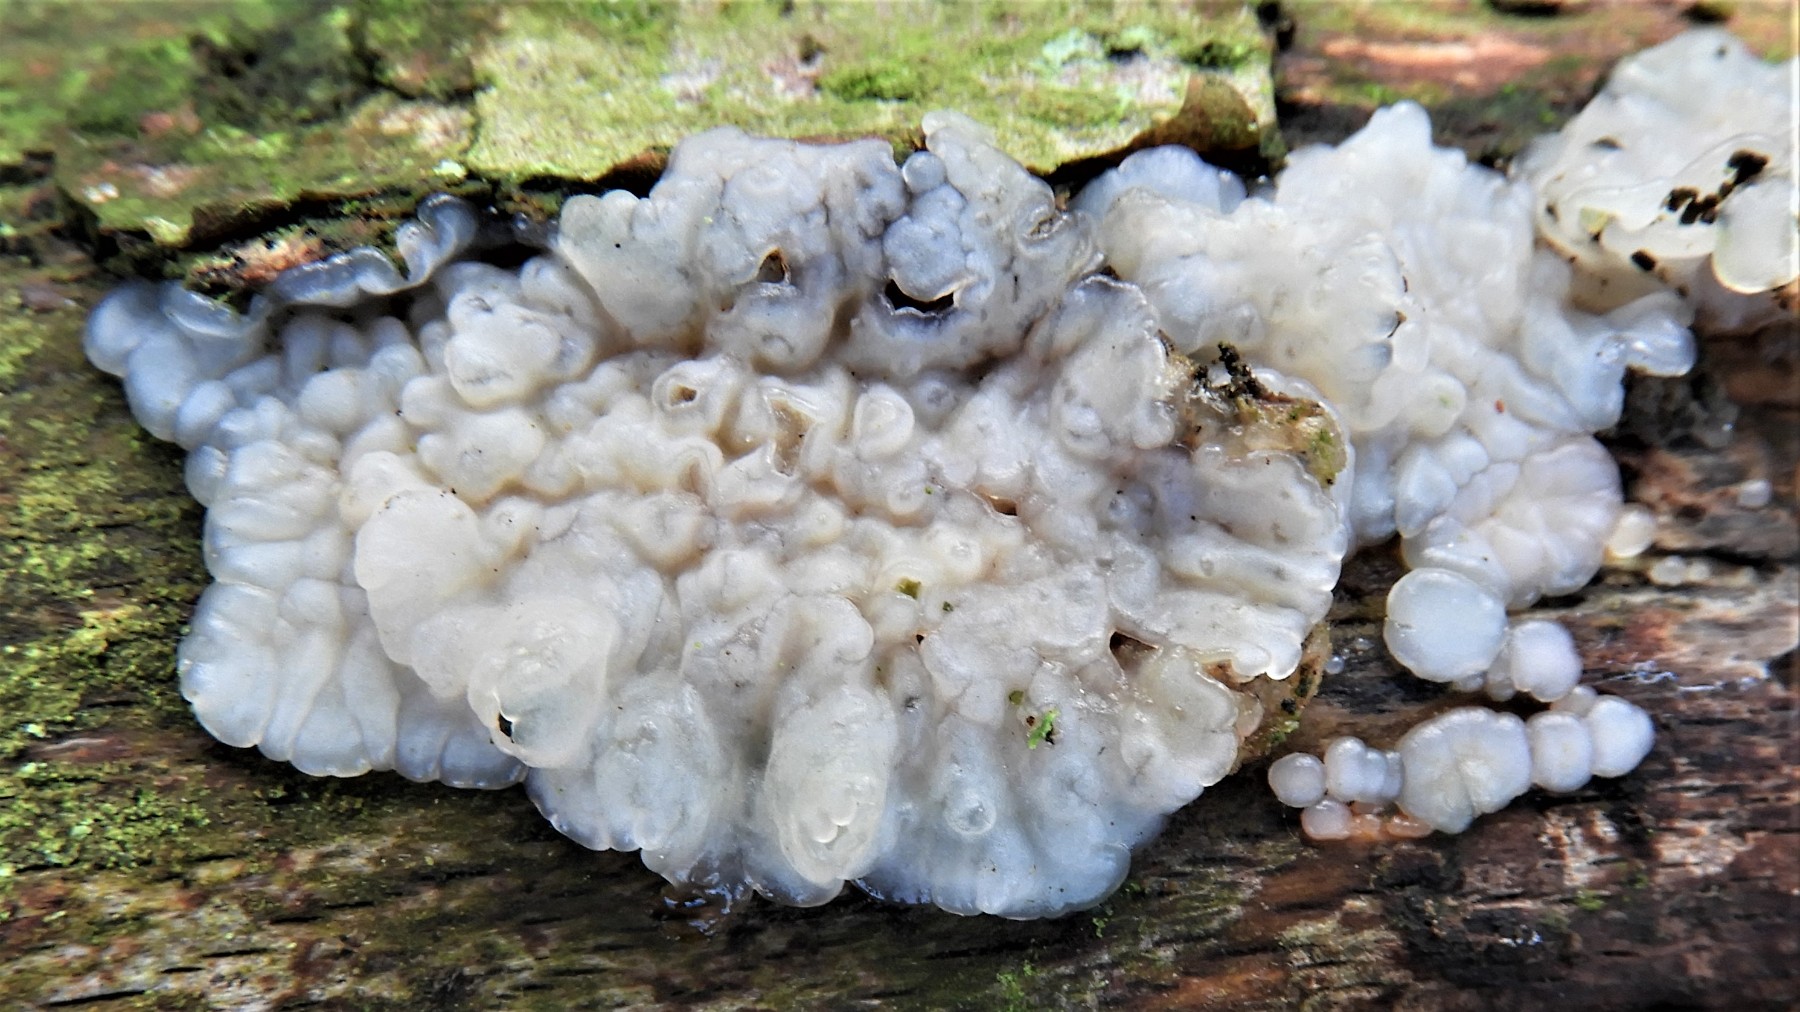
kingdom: Fungi
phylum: Basidiomycota
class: Agaricomycetes
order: Auriculariales
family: Auriculariaceae
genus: Exidia
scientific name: Exidia thuretiana
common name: hvidlig bævretop
